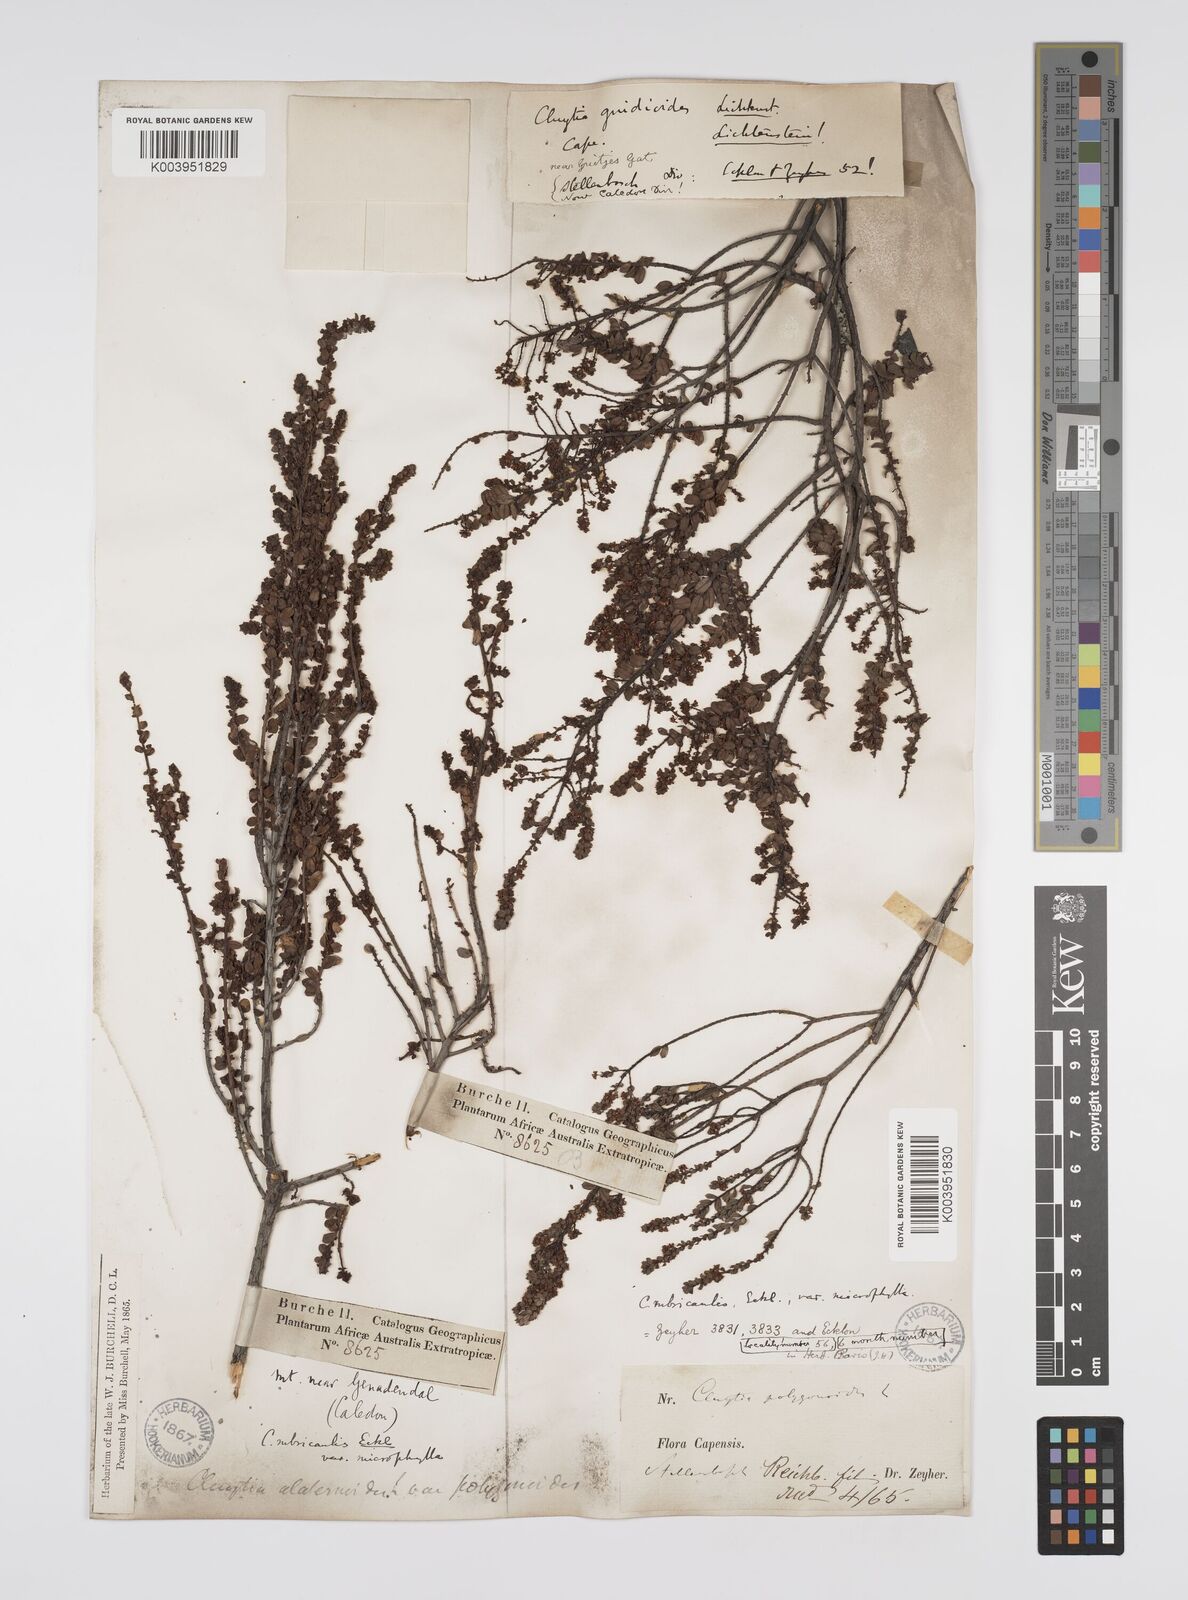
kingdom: Plantae
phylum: Tracheophyta
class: Magnoliopsida
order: Malpighiales
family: Peraceae
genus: Clutia
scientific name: Clutia rubricaulis
